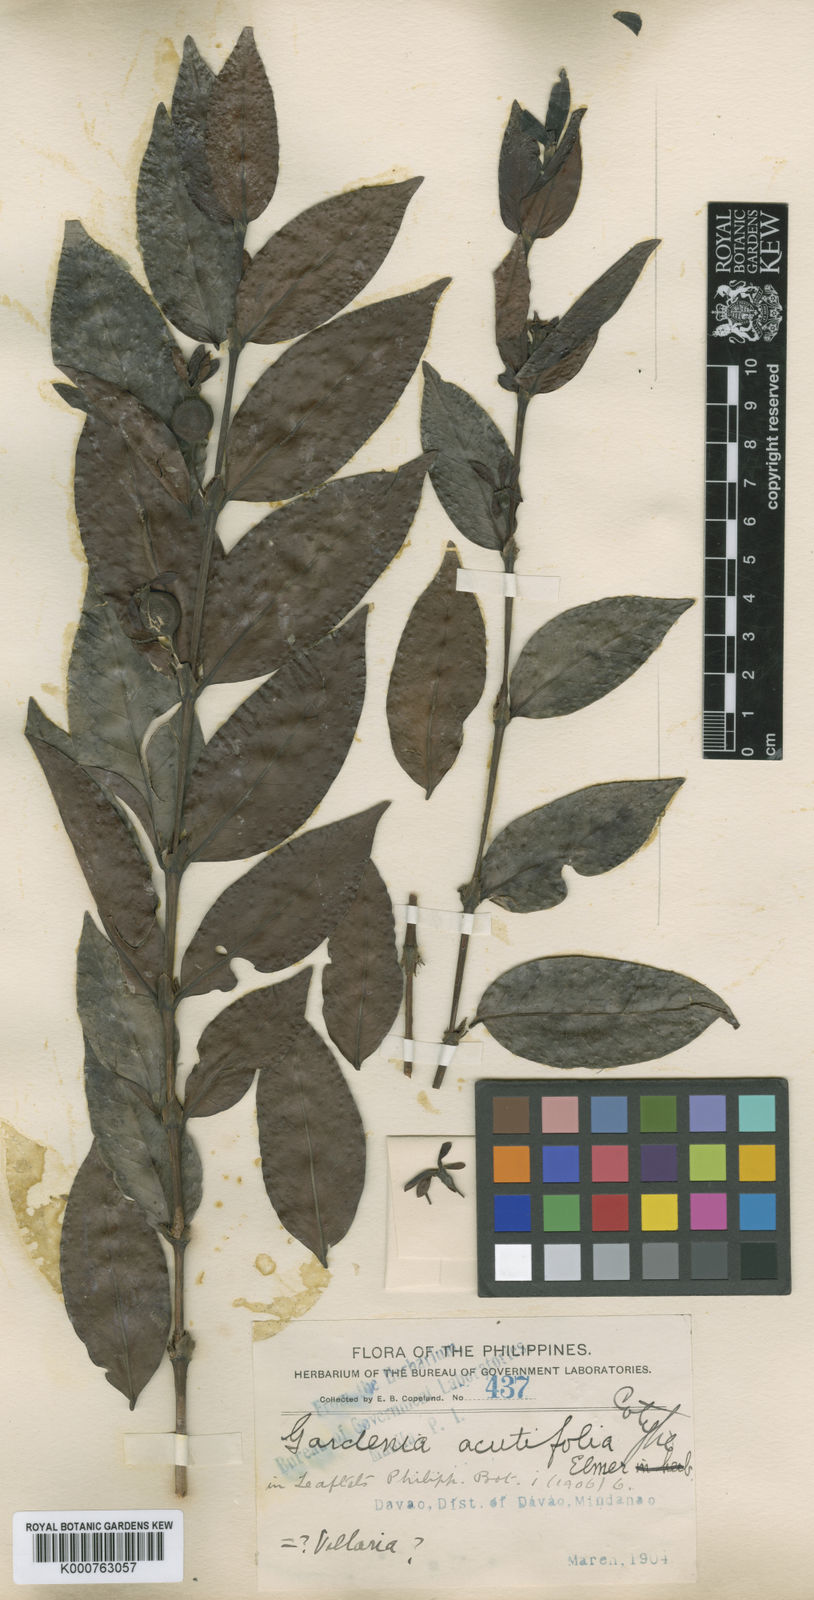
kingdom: Plantae
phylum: Tracheophyta
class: Magnoliopsida
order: Gentianales
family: Rubiaceae
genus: Villaria
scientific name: Villaria acutifolia
